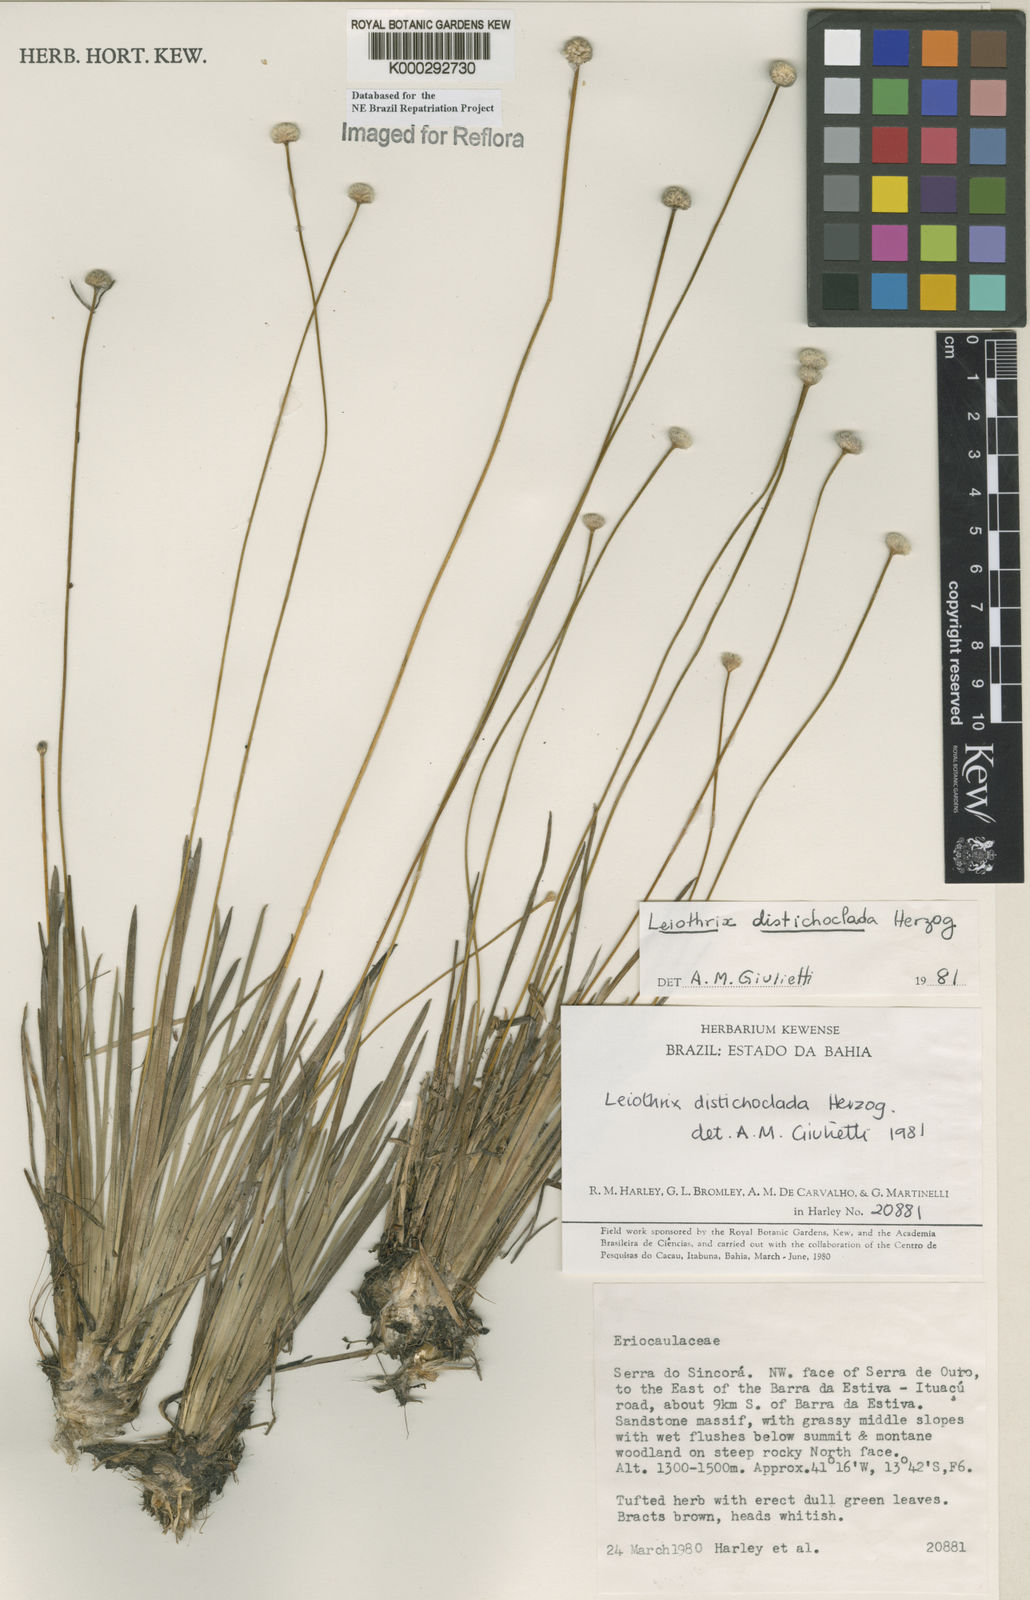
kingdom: Plantae
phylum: Tracheophyta
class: Liliopsida
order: Poales
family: Eriocaulaceae
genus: Leiothrix
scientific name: Leiothrix distichoclada
